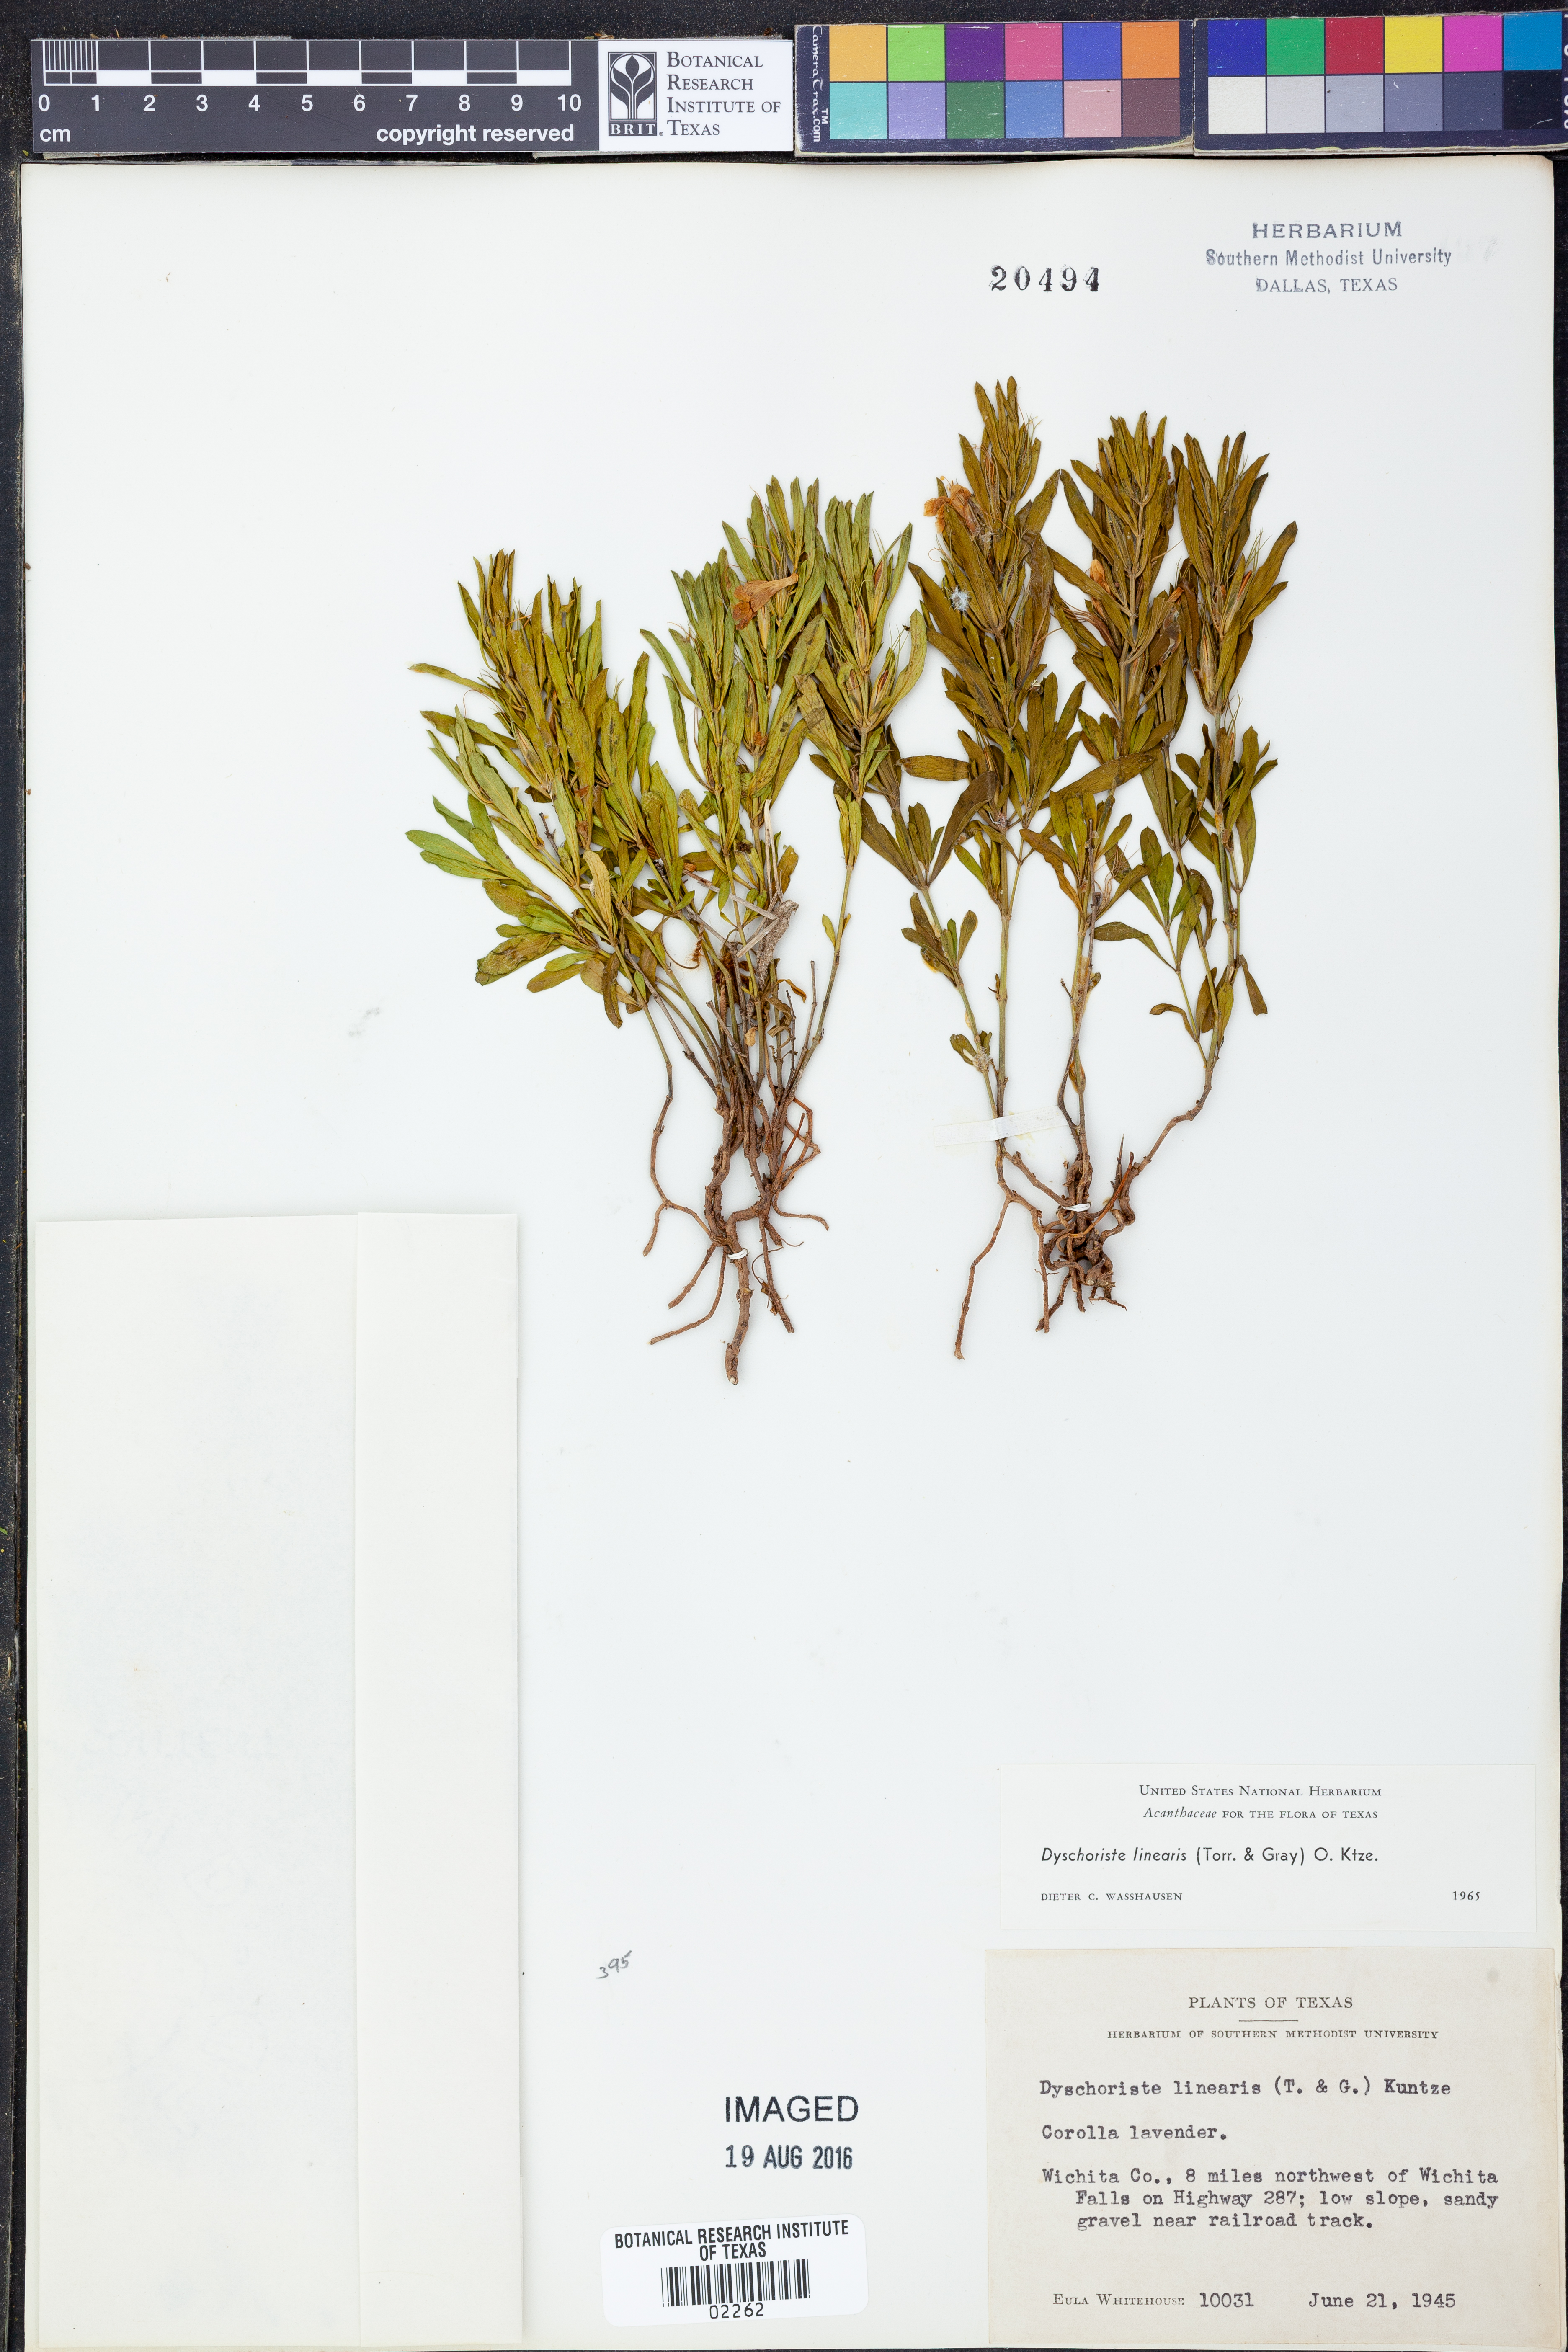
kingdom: Plantae
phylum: Tracheophyta
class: Magnoliopsida
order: Lamiales
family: Acanthaceae
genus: Dyschoriste
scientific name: Dyschoriste linearis
